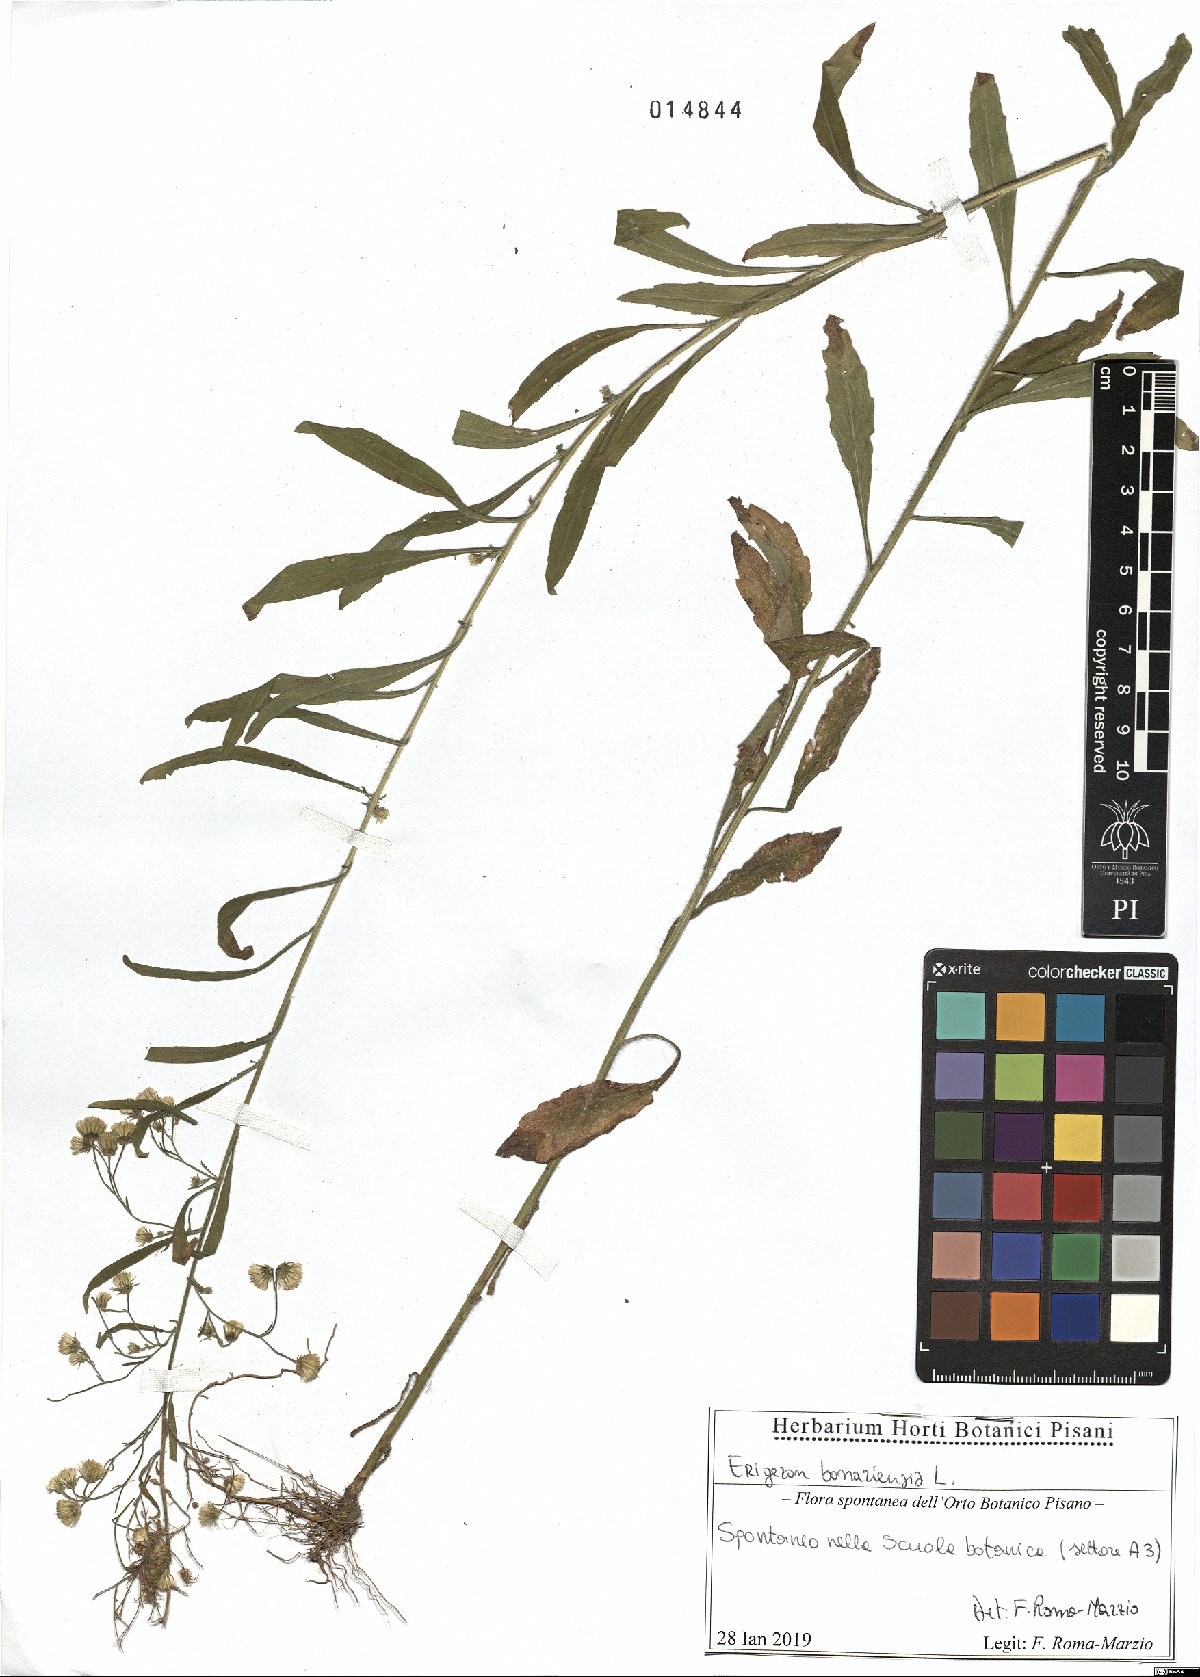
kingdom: Plantae
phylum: Tracheophyta
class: Magnoliopsida
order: Asterales
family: Asteraceae
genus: Erigeron
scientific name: Erigeron bonariensis
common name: Argentine fleabane
